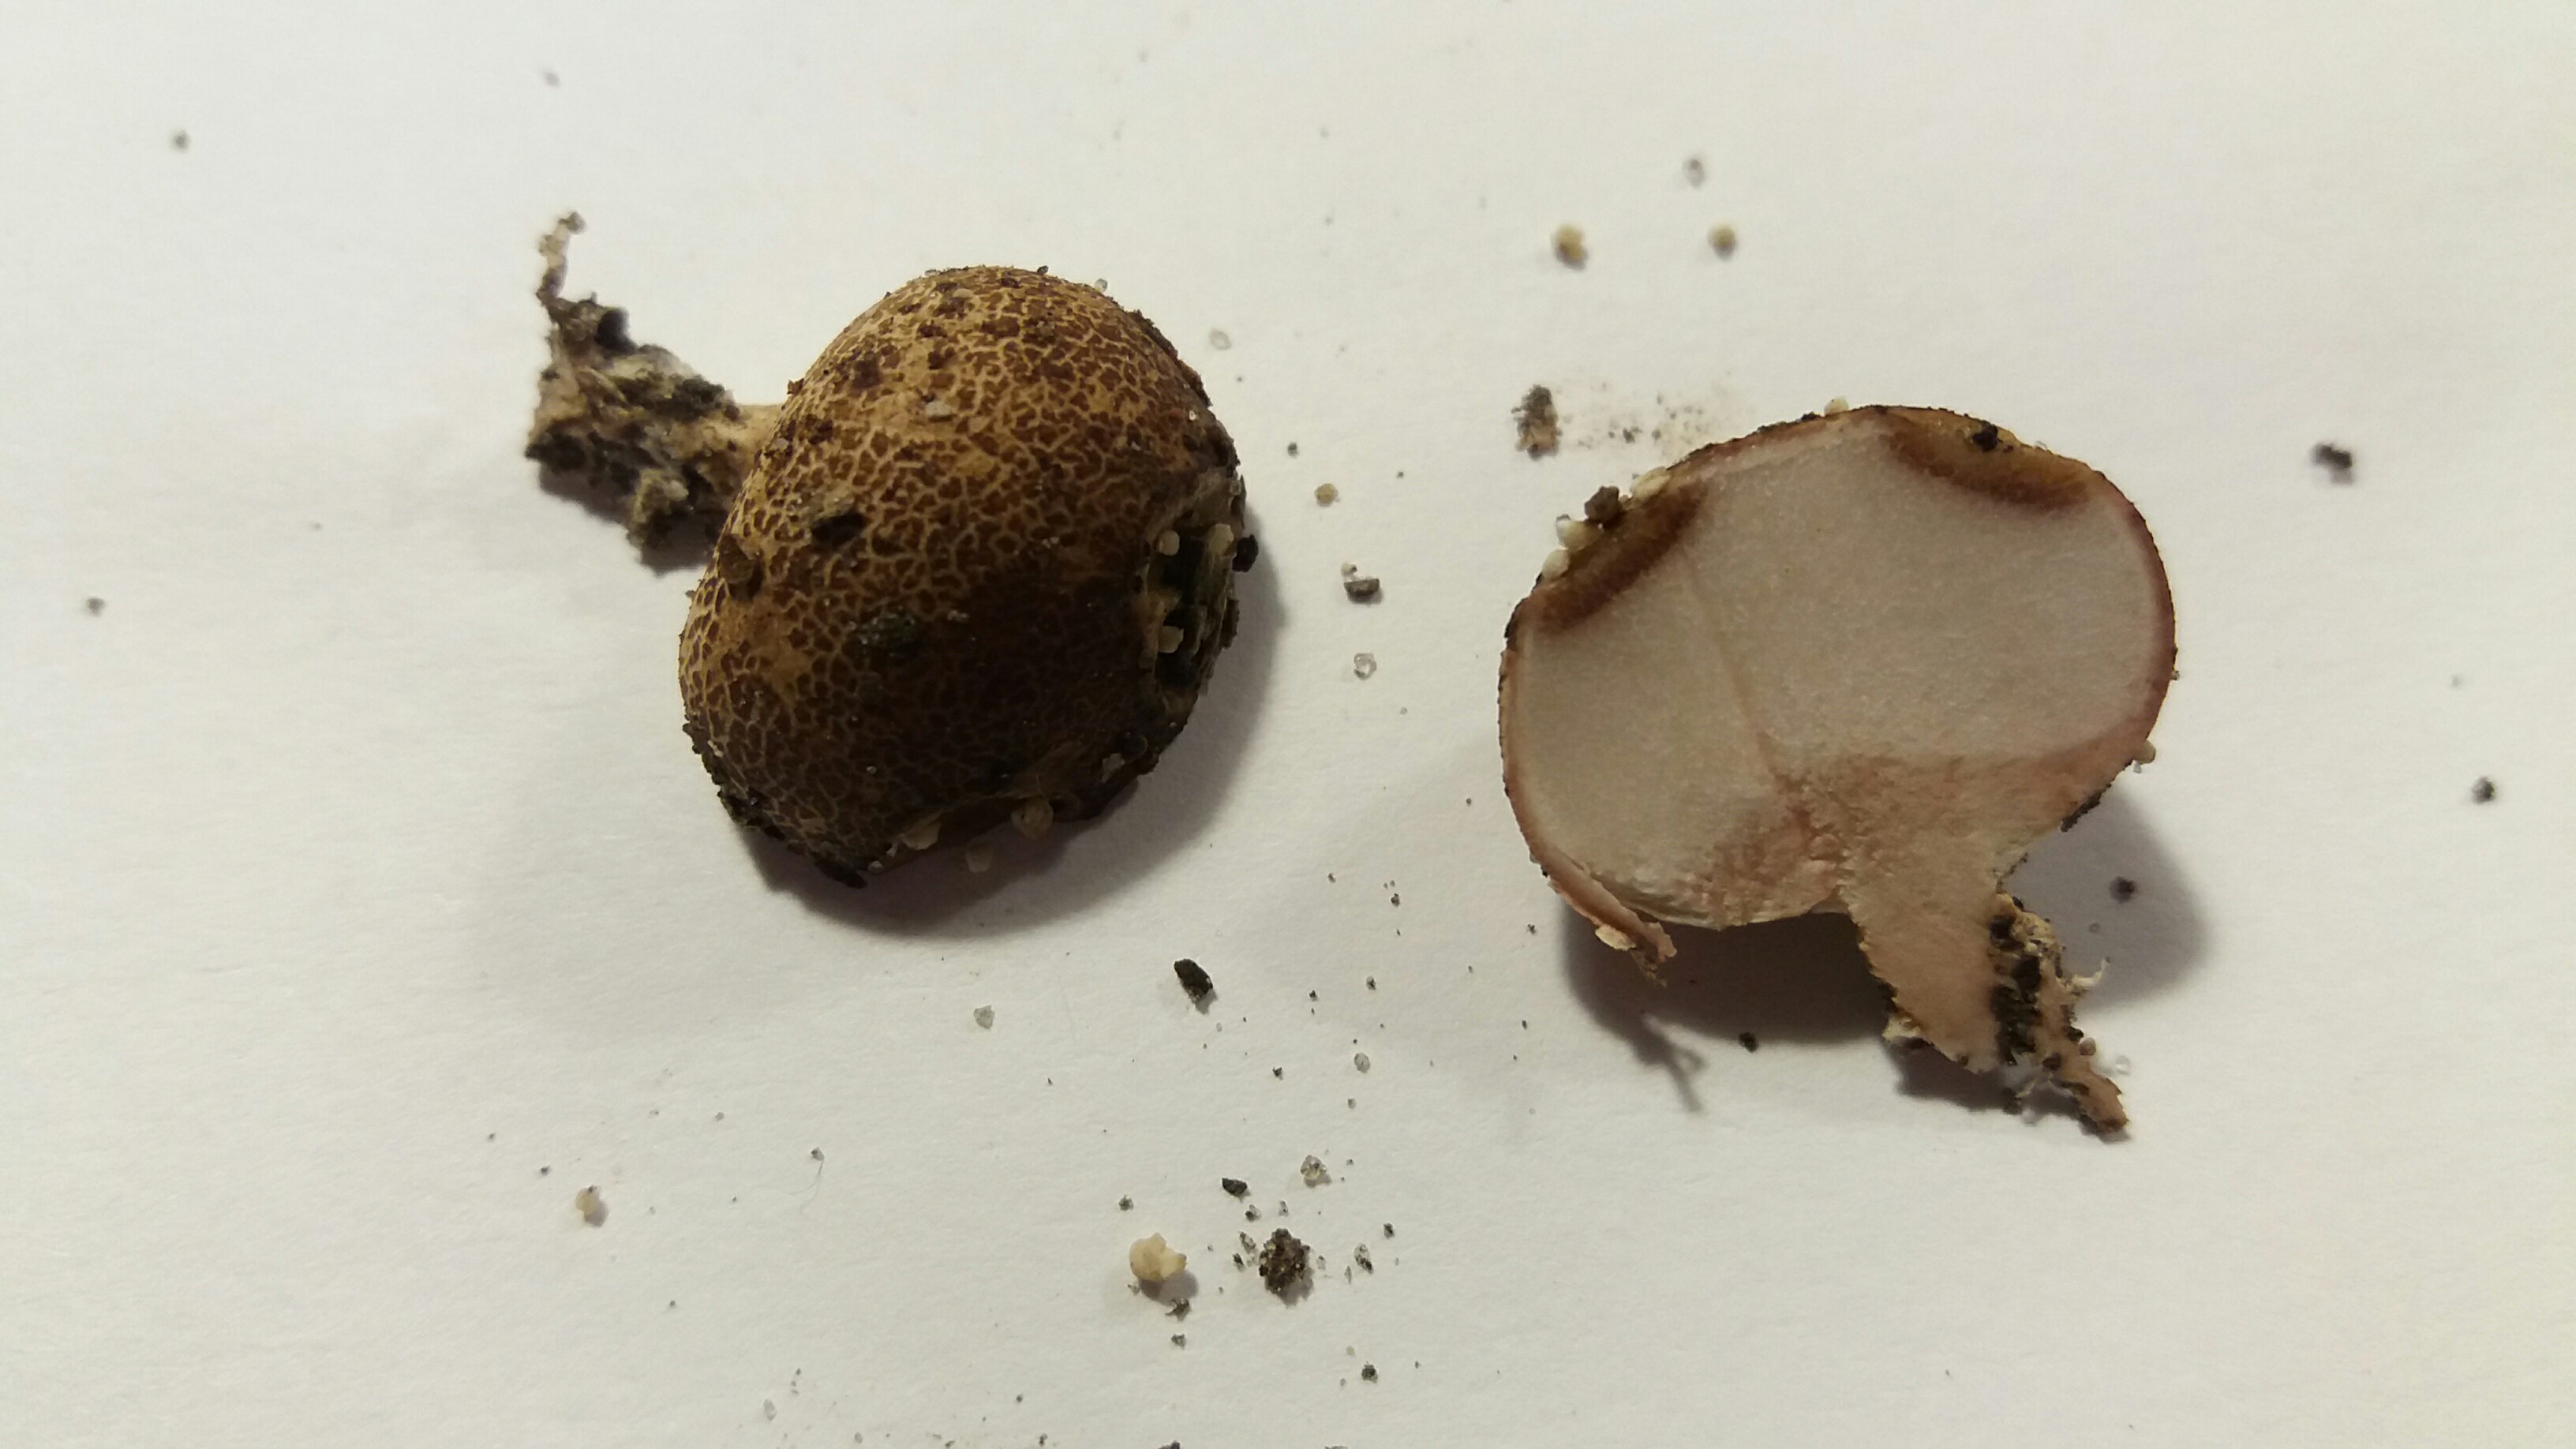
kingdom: Fungi
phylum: Basidiomycota
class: Agaricomycetes
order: Boletales
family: Sclerodermataceae
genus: Scleroderma
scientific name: Scleroderma areolatum
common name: plettet bruskbold
